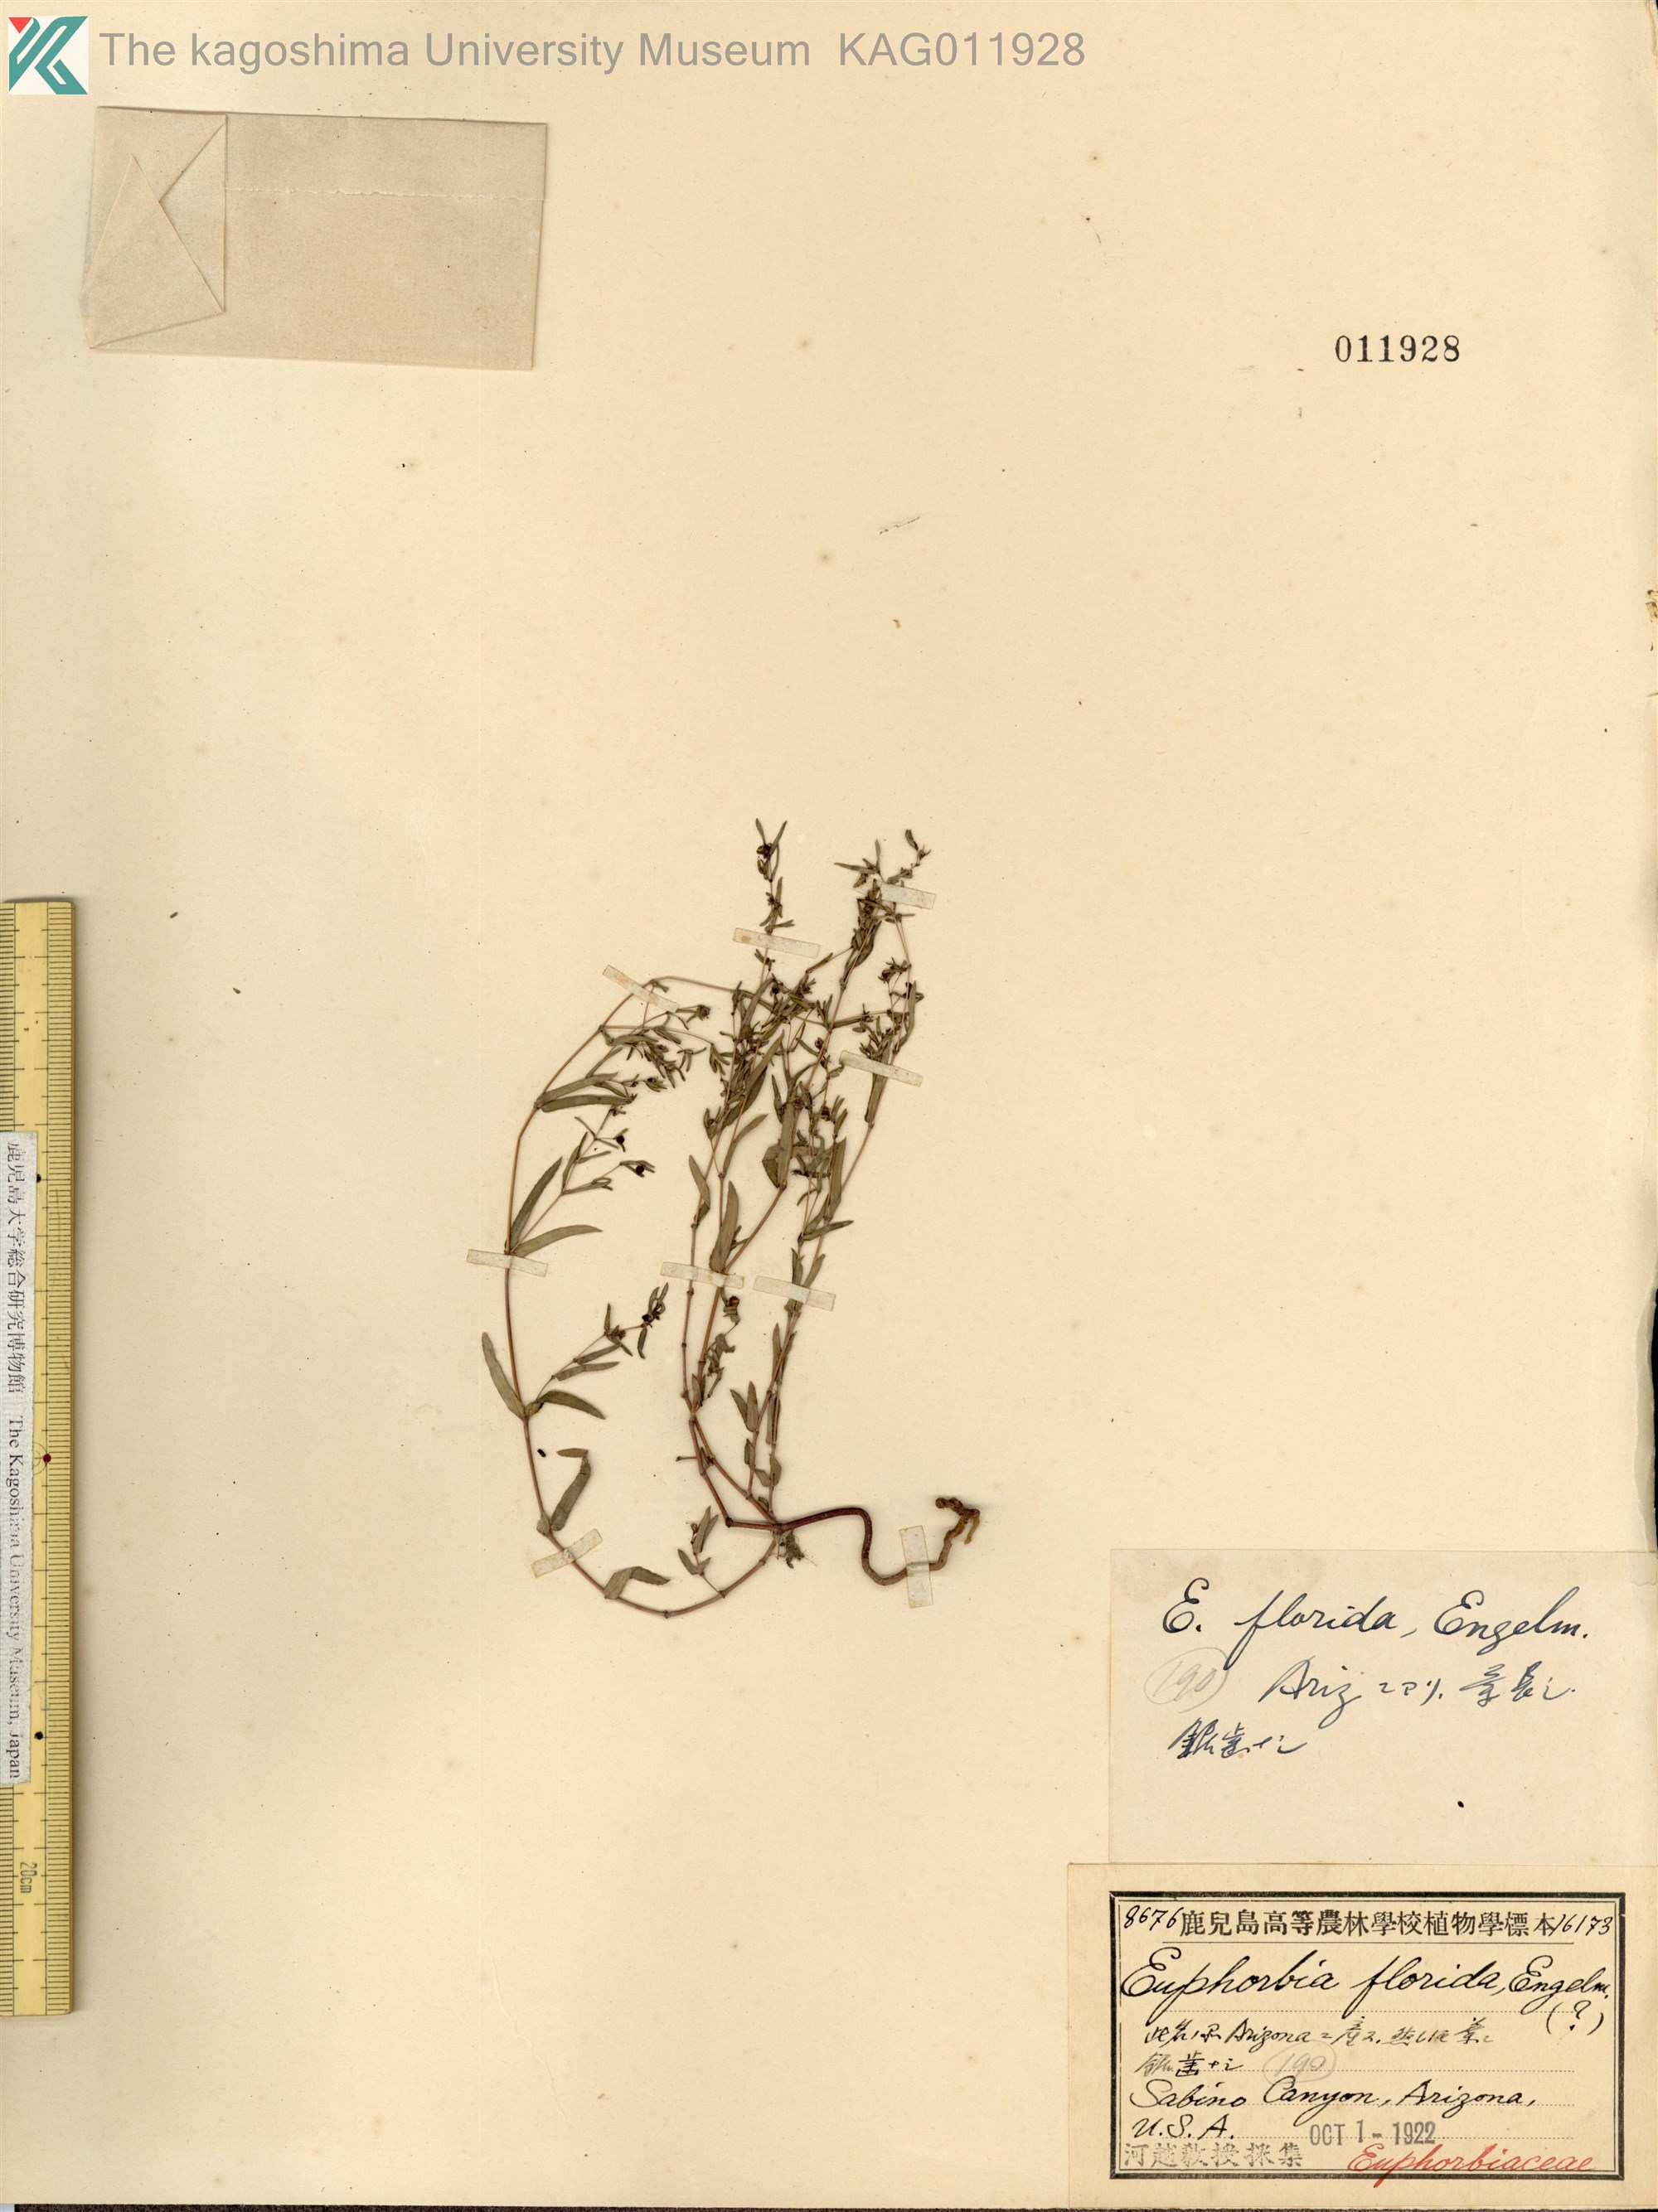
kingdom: Plantae
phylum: Tracheophyta
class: Magnoliopsida
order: Malpighiales
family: Euphorbiaceae
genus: Euphorbia
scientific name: Euphorbia florida
